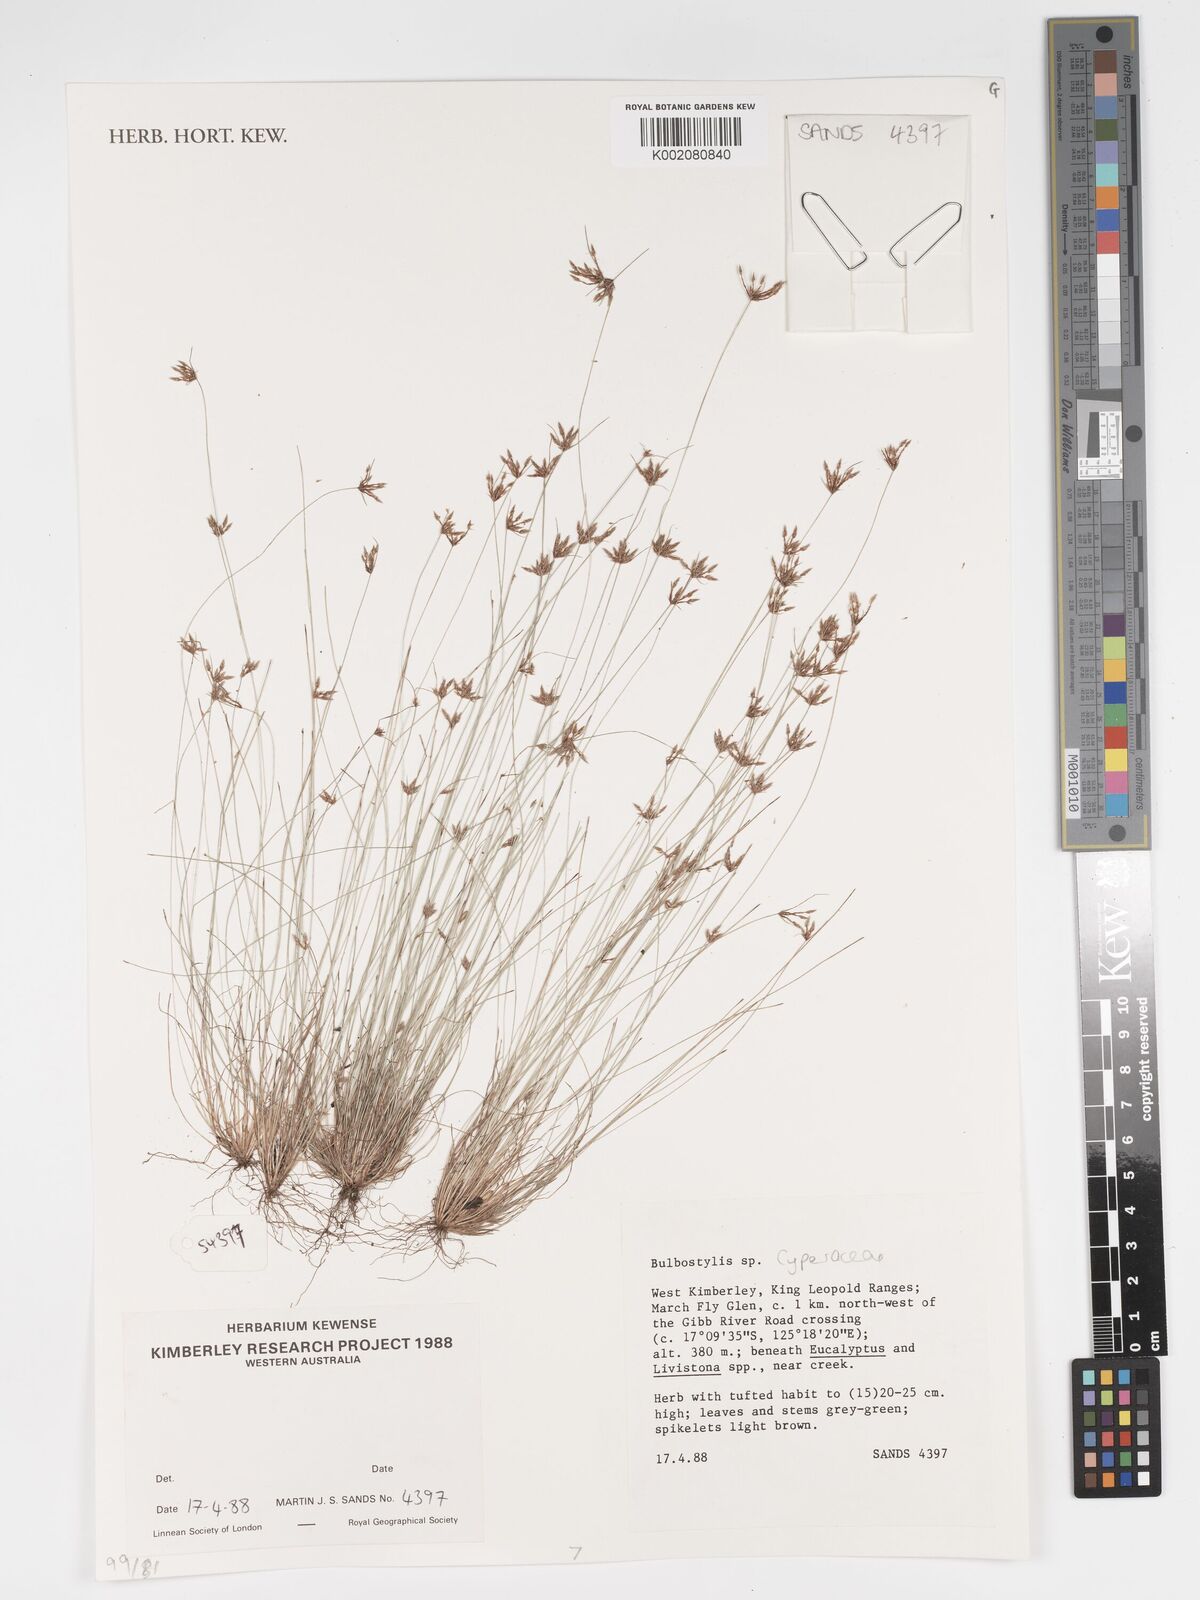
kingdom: Plantae
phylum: Tracheophyta
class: Liliopsida
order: Poales
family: Cyperaceae
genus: Bulbostylis
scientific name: Bulbostylis
